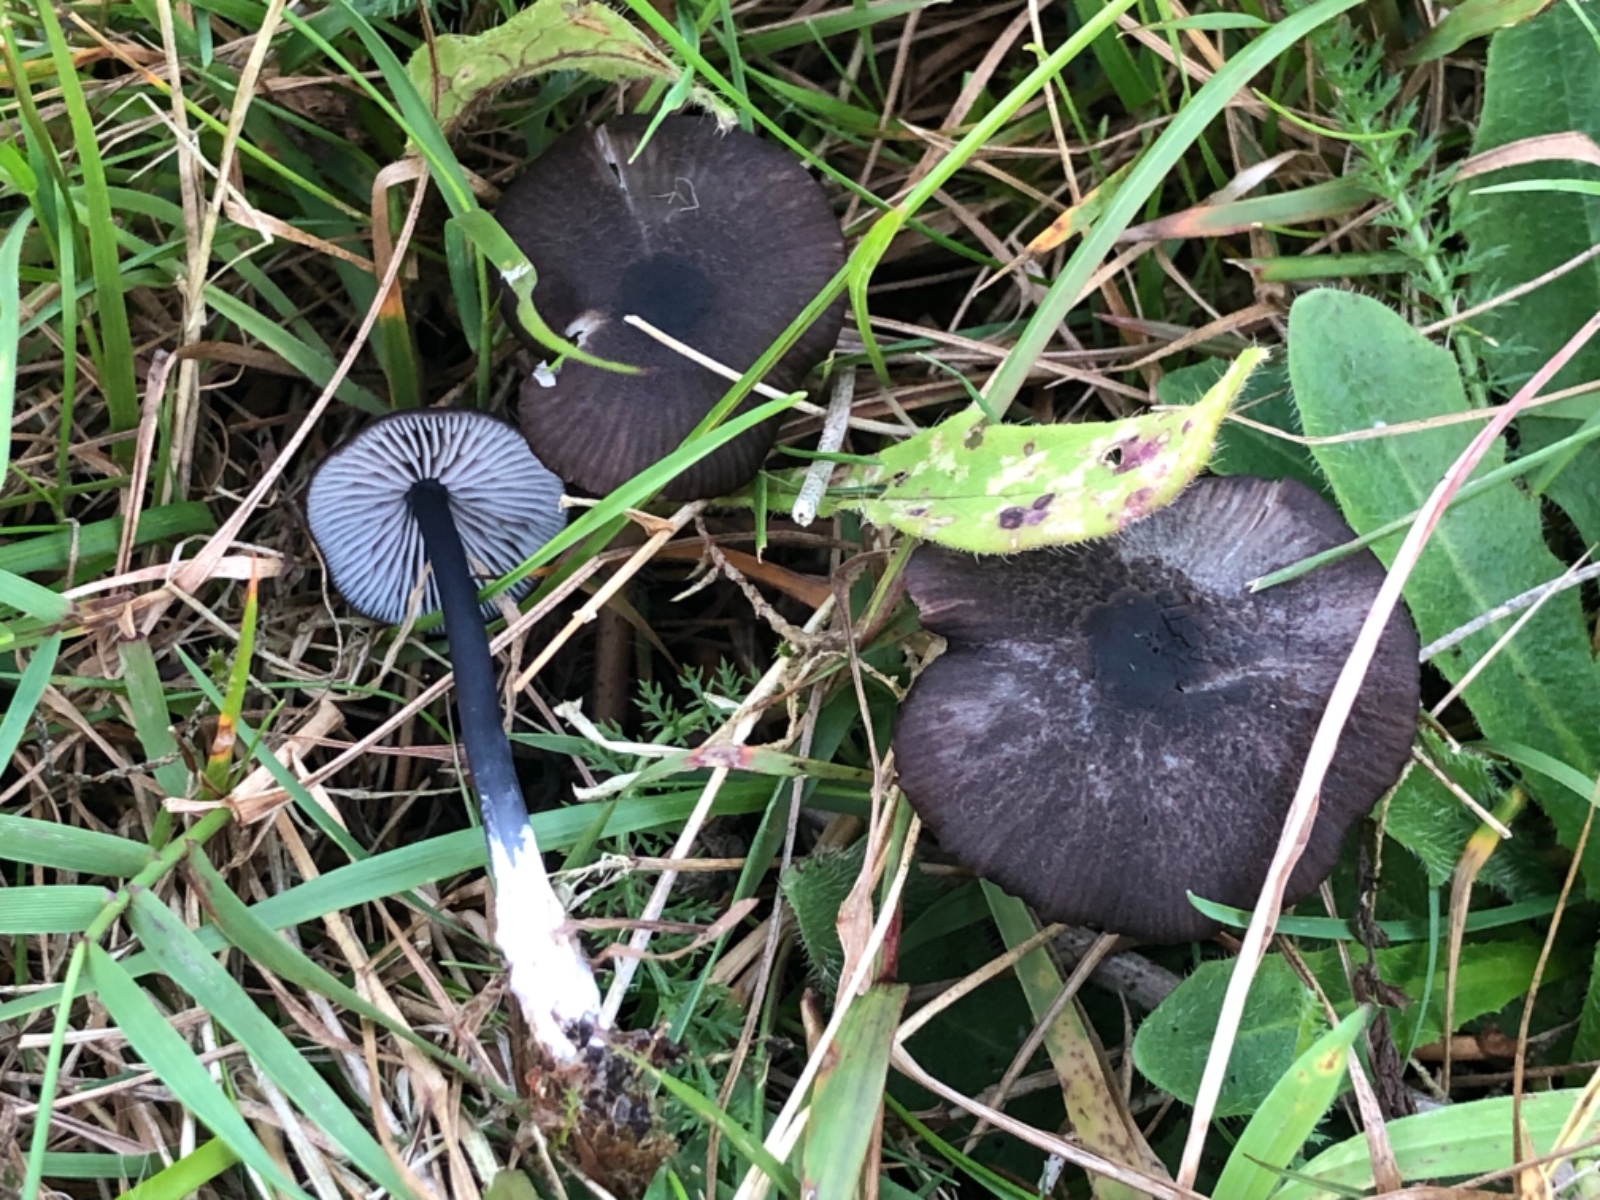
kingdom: Fungi
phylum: Basidiomycota
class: Agaricomycetes
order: Agaricales
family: Entolomataceae
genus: Entoloma
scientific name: Entoloma chalybeum
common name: blåbladet rødblad
